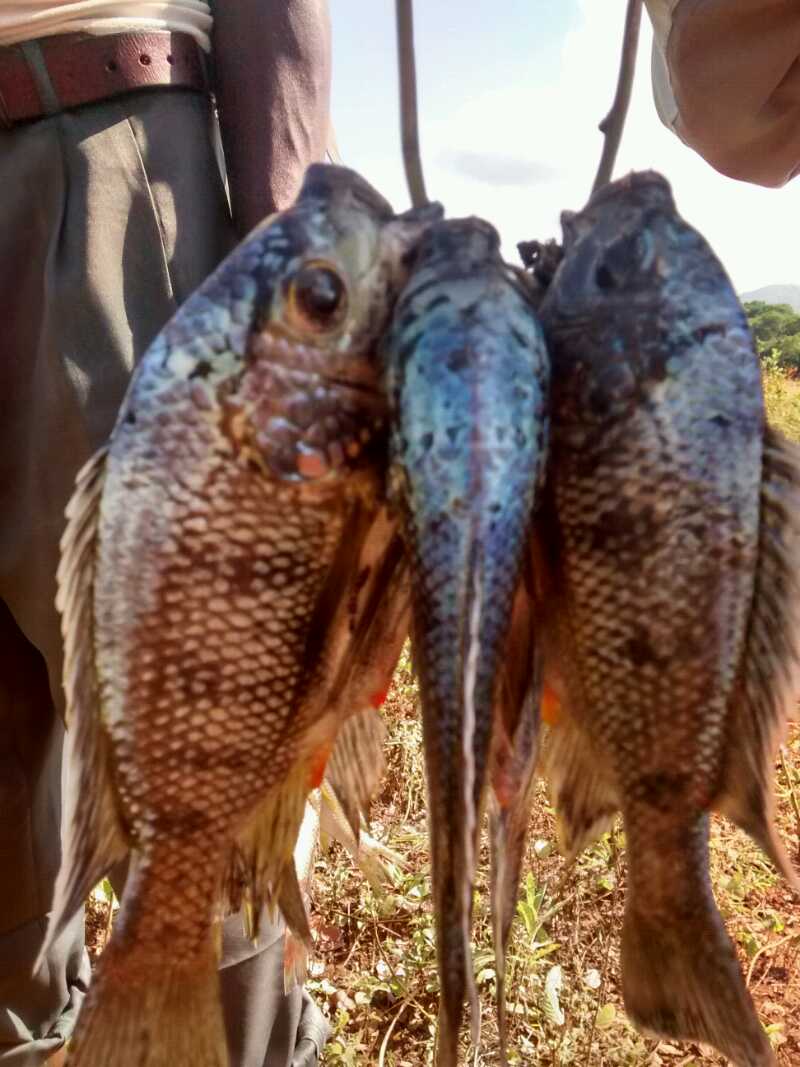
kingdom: Animalia
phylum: Chordata
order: Perciformes
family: Cichlidae
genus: Oreochromis
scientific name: Oreochromis squamipinnis
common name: Chambo
